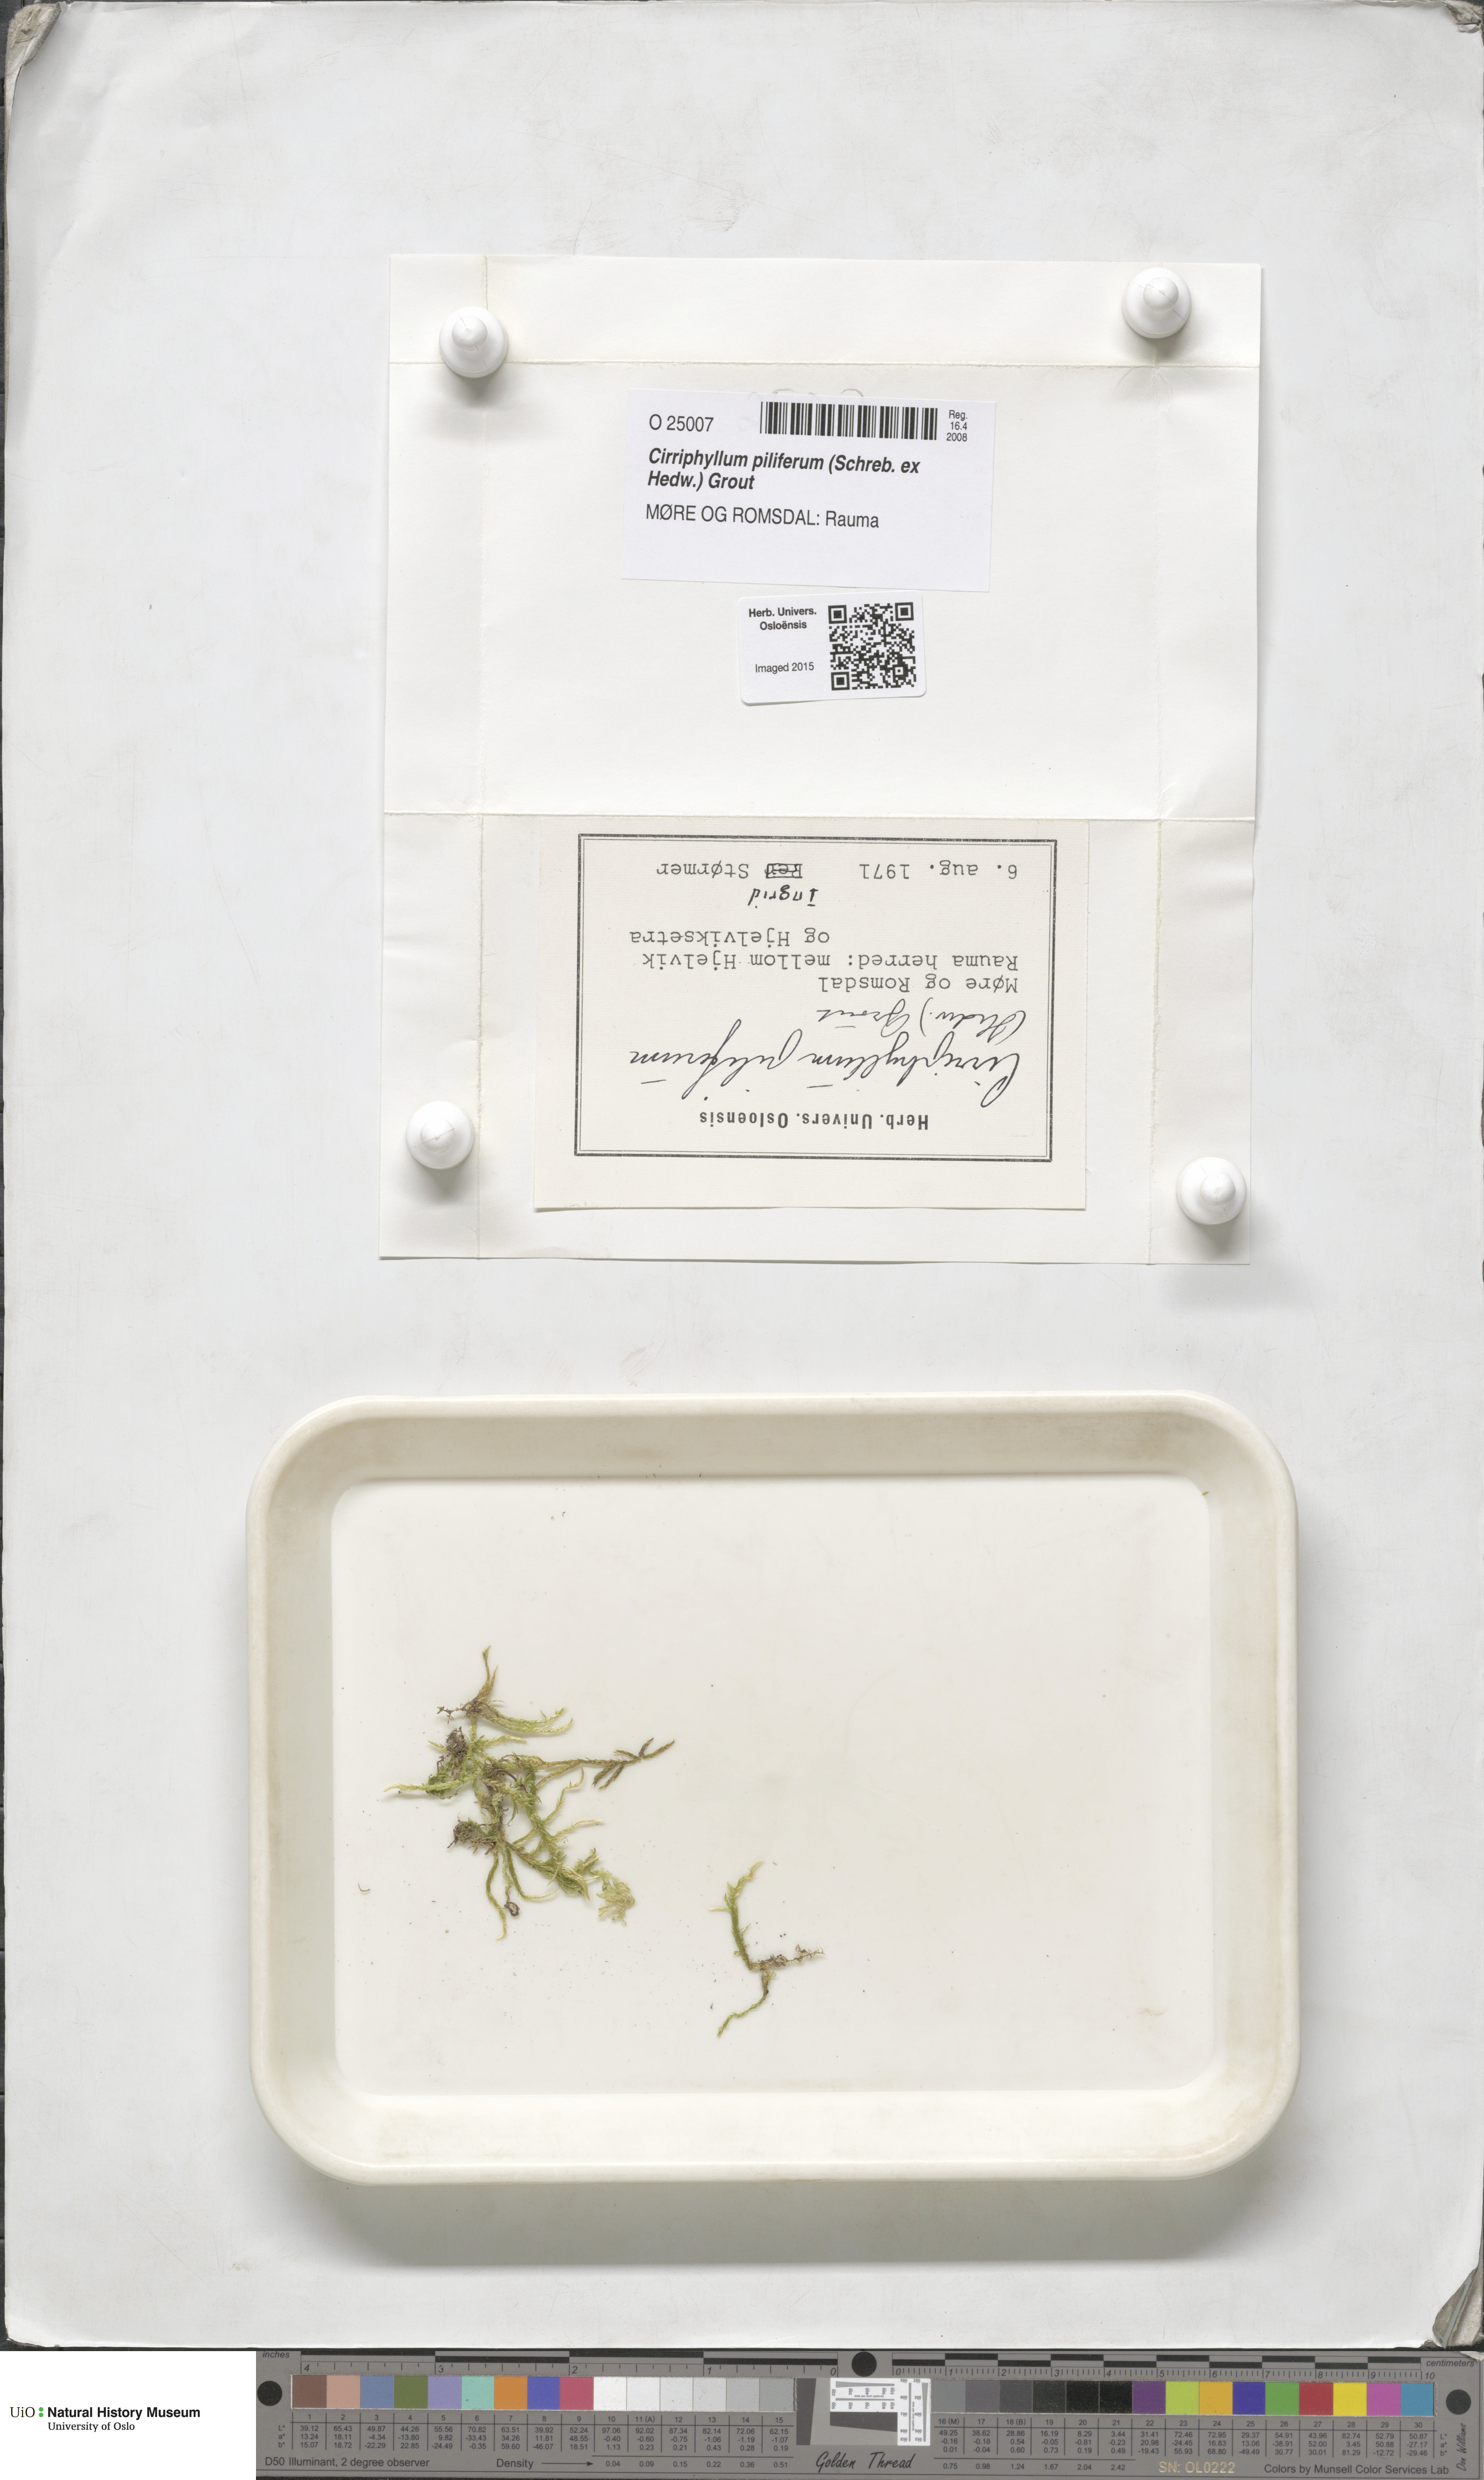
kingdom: Plantae
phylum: Bryophyta
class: Bryopsida
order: Hypnales
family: Brachytheciaceae
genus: Cirriphyllum
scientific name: Cirriphyllum piliferum
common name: Hair-pointed moss
